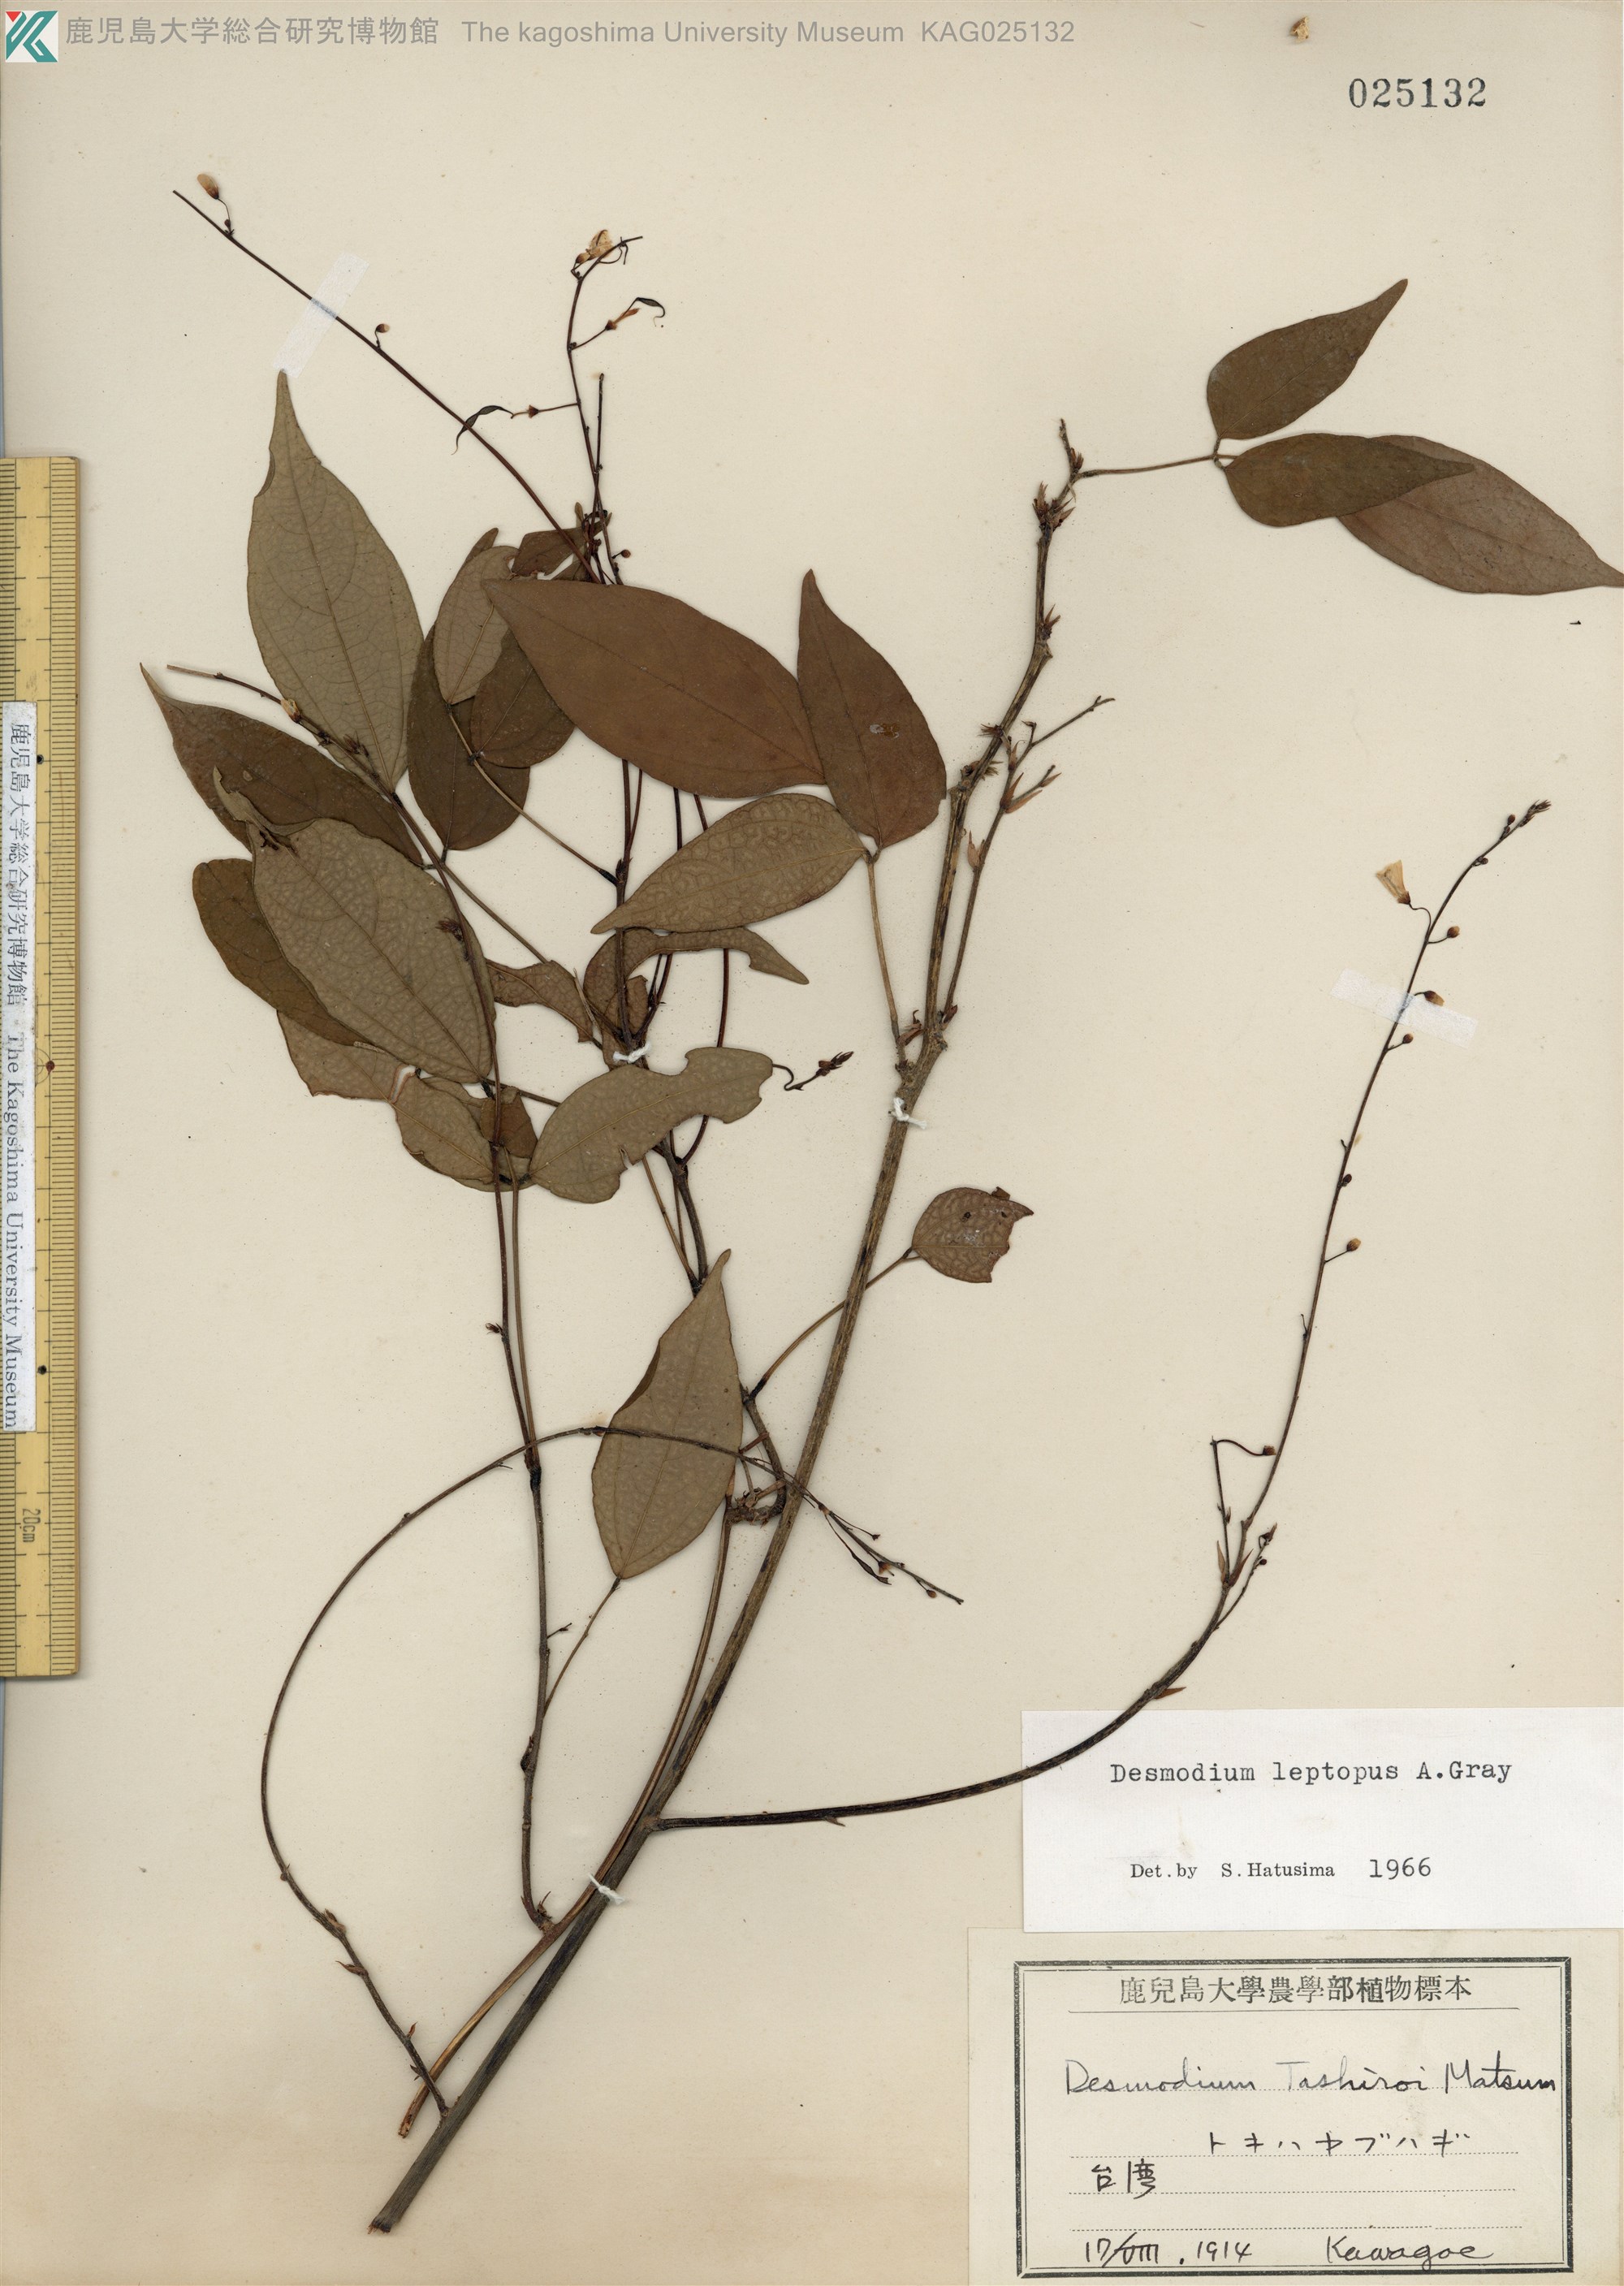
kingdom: Plantae
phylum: Tracheophyta
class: Magnoliopsida
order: Fabales
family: Fabaceae
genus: Hylodesmum
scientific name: Hylodesmum leptopus
